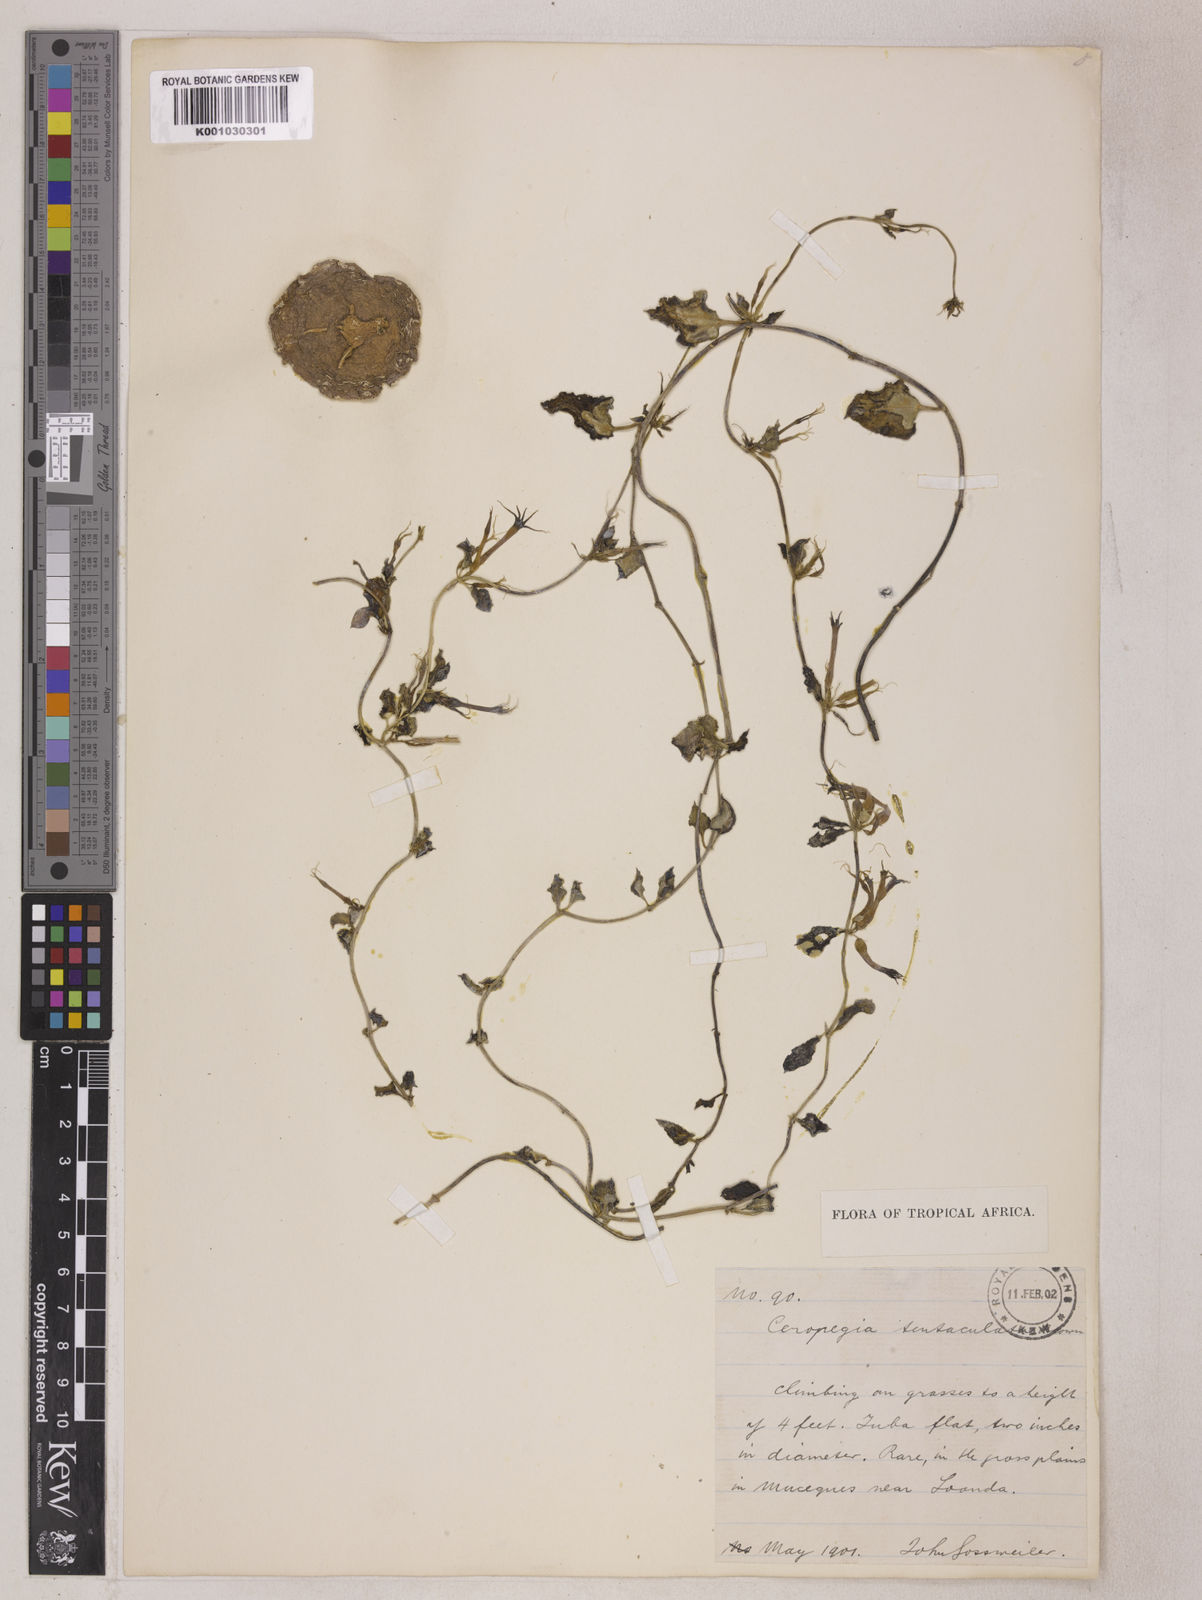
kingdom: Plantae
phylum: Tracheophyta
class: Magnoliopsida
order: Gentianales
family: Apocynaceae
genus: Ceropegia
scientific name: Ceropegia multiflora
